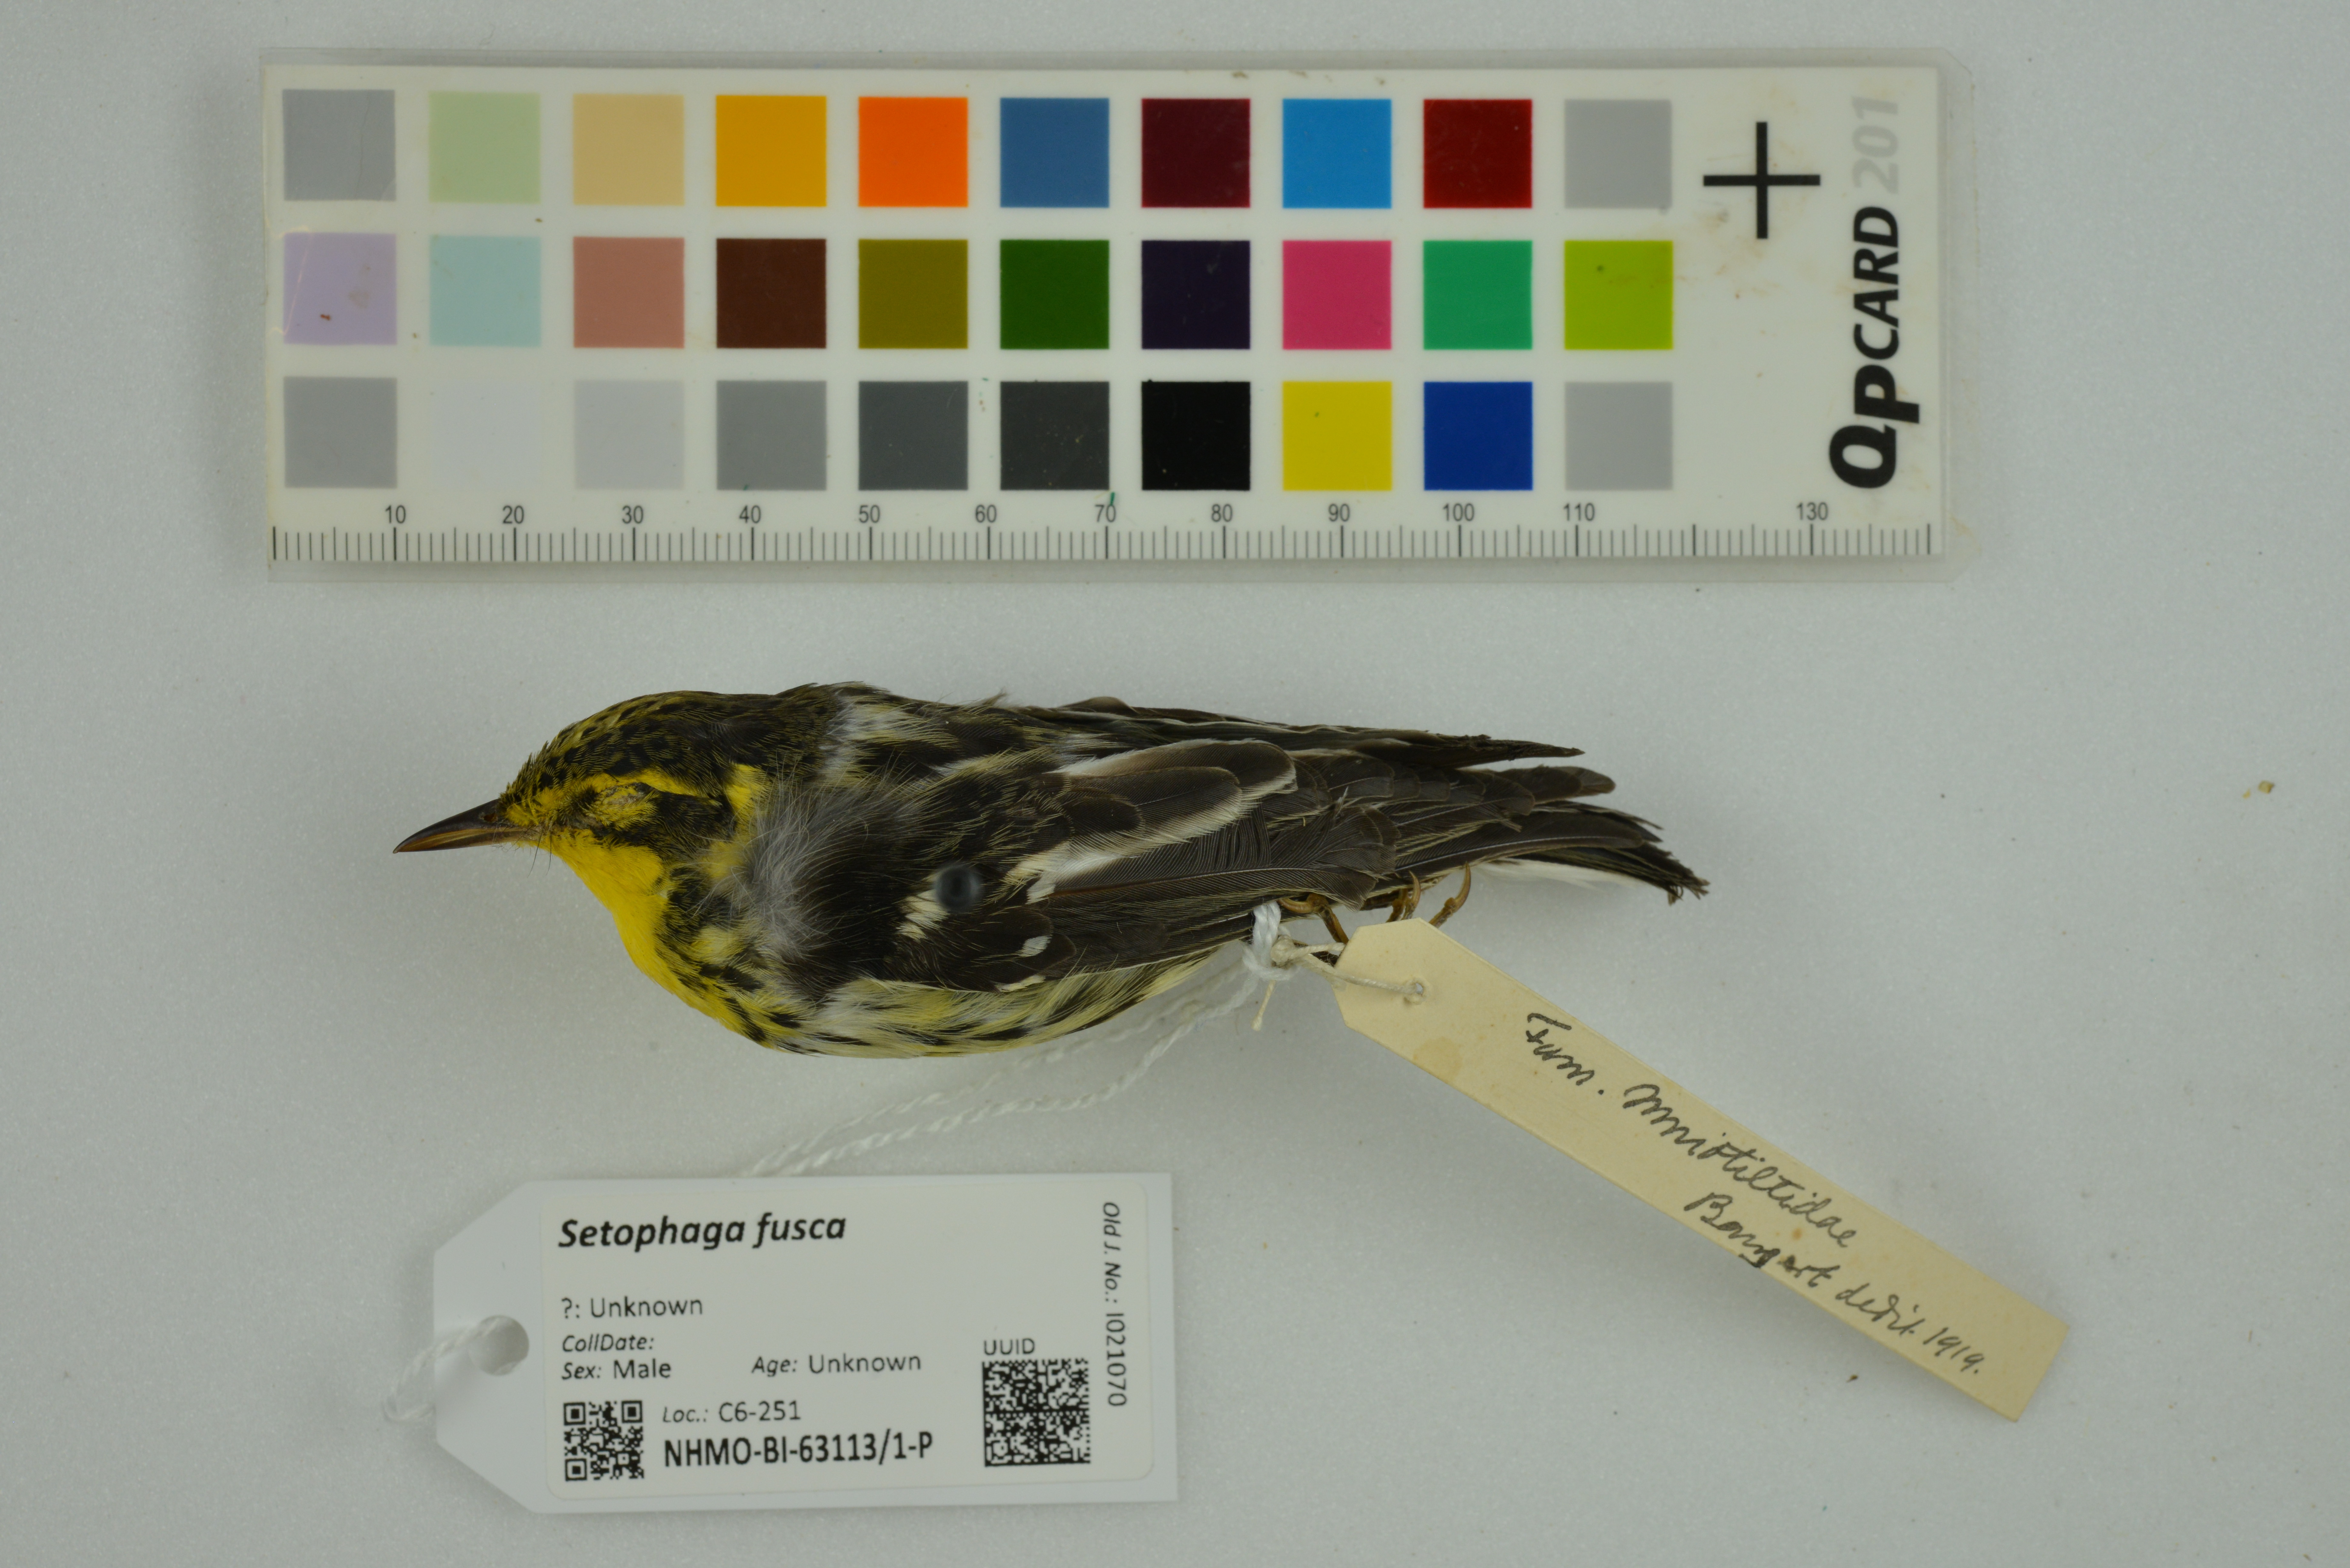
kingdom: Animalia
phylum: Chordata
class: Aves
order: Passeriformes
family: Parulidae
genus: Setophaga
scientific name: Setophaga fusca
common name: Blackburnian warbler
